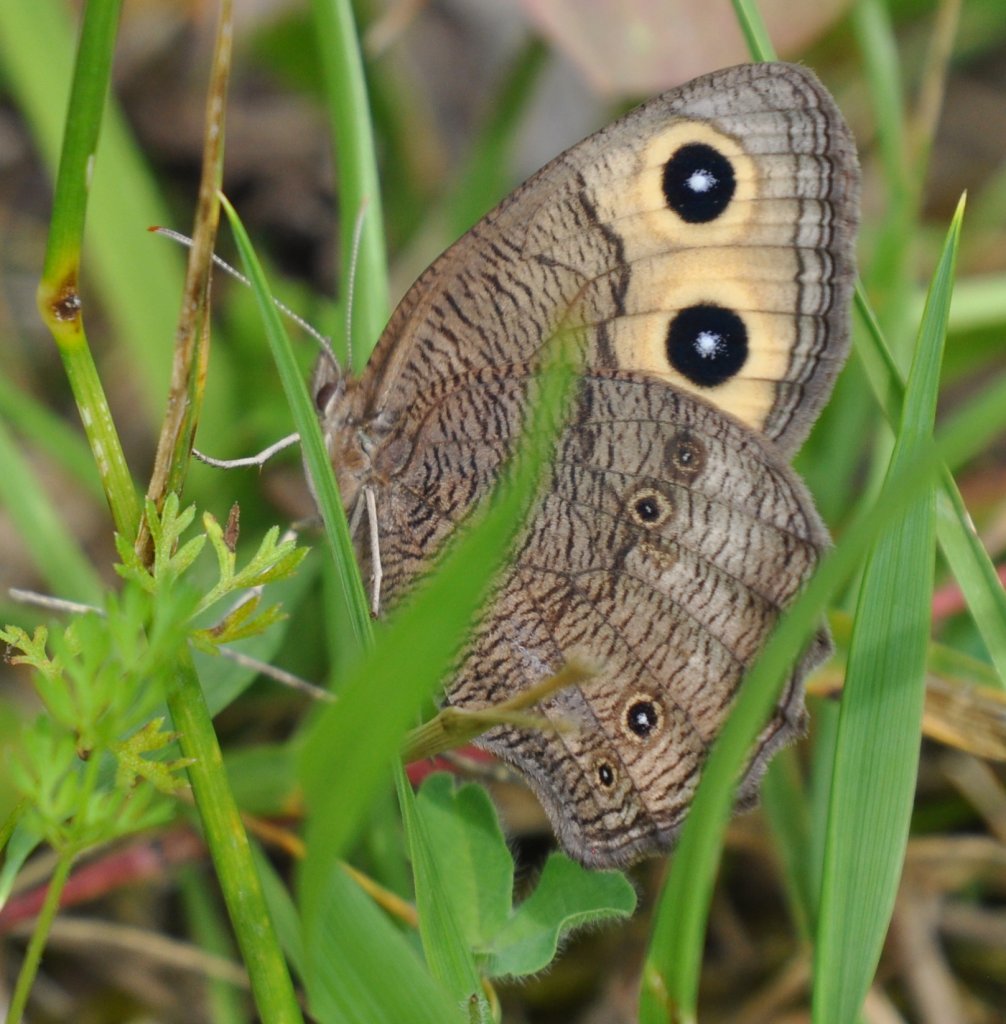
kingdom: Animalia
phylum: Arthropoda
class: Insecta
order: Lepidoptera
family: Nymphalidae
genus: Cercyonis
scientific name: Cercyonis pegala
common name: Common Wood-Nymph
